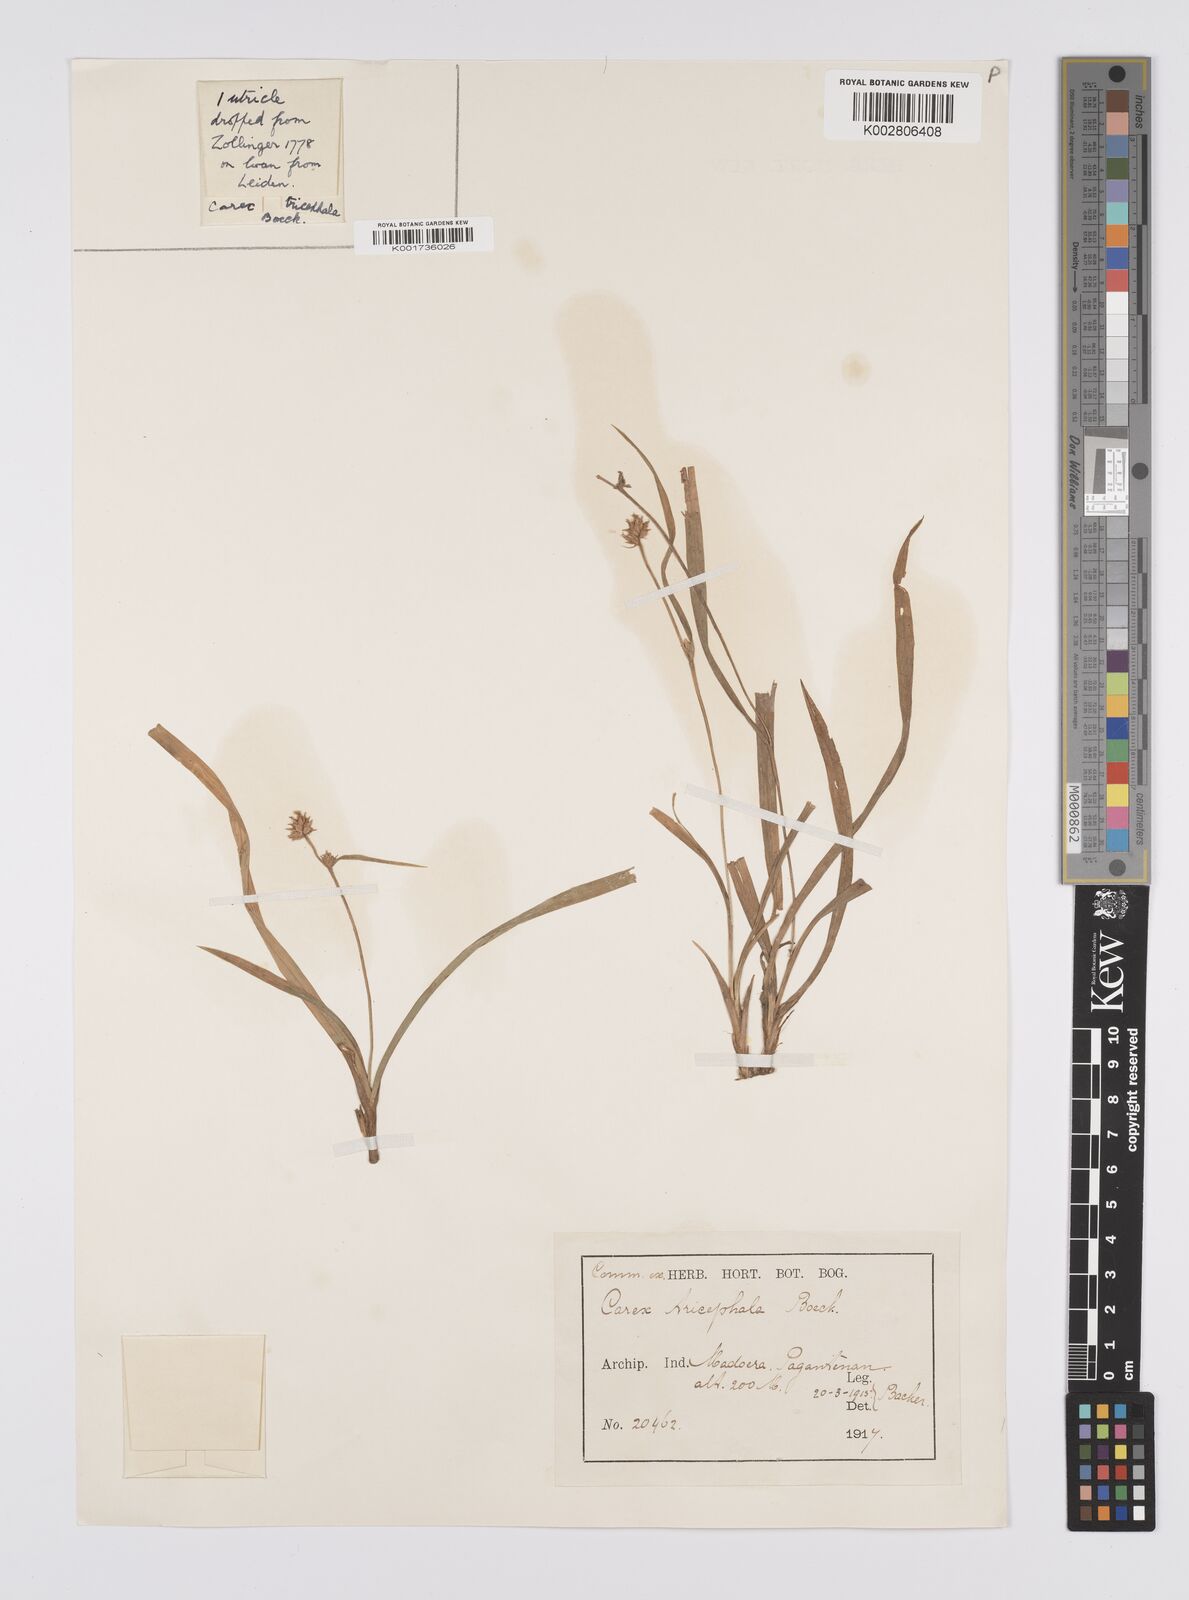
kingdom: Plantae
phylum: Tracheophyta
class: Liliopsida
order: Poales
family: Cyperaceae
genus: Carex
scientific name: Carex tricephala
